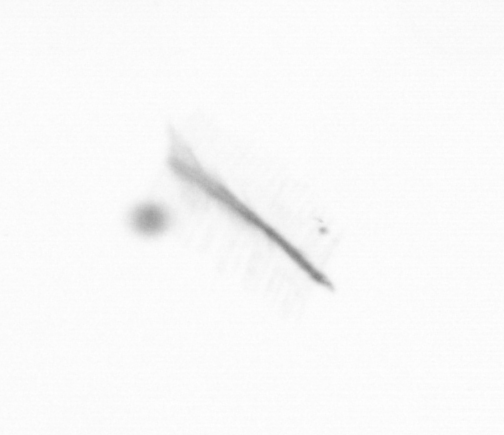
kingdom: Chromista
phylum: Ochrophyta
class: Bacillariophyceae
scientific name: Bacillariophyceae
